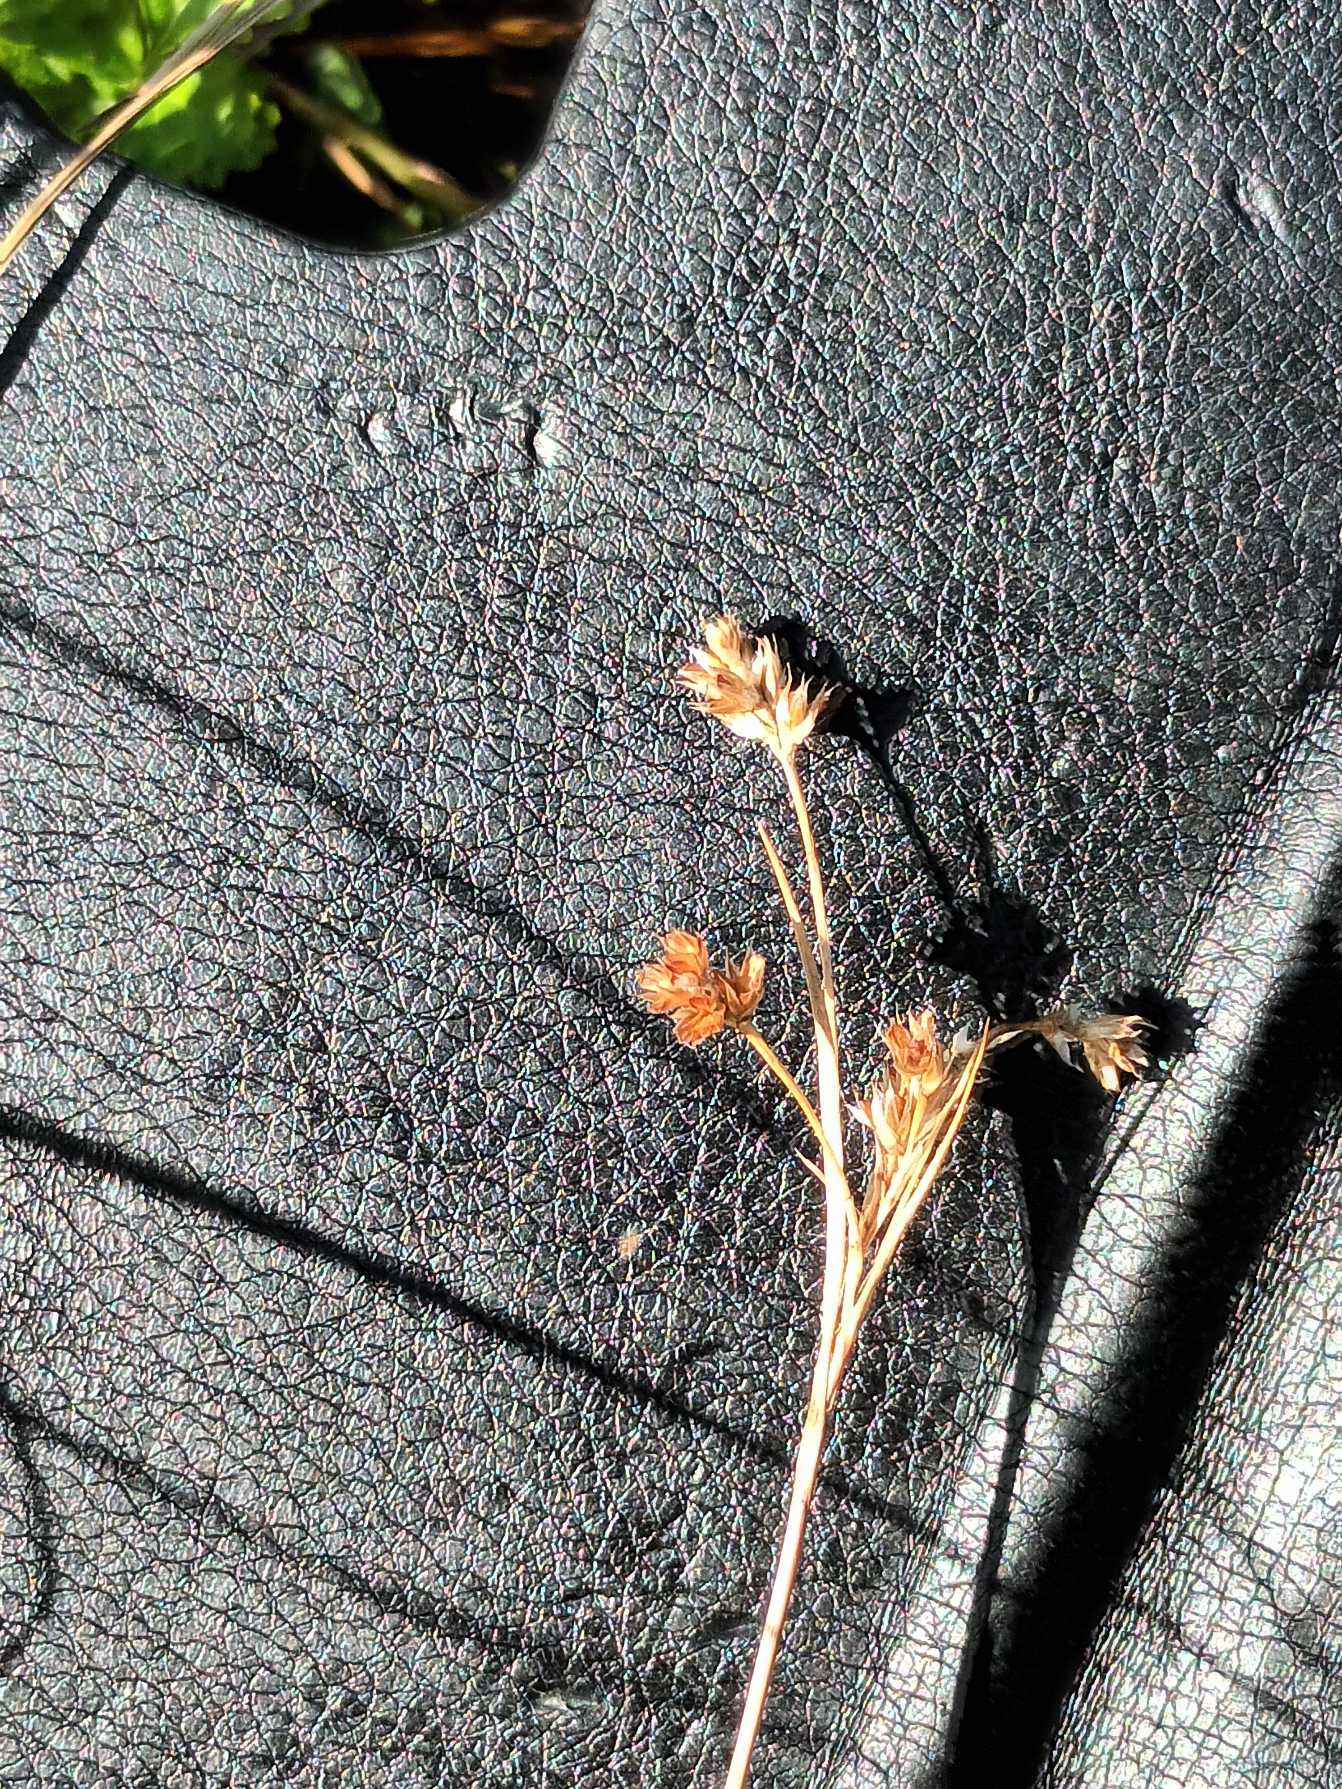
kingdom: Plantae
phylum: Tracheophyta
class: Liliopsida
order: Poales
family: Juncaceae
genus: Luzula
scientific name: Luzula
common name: Frytleslægten
